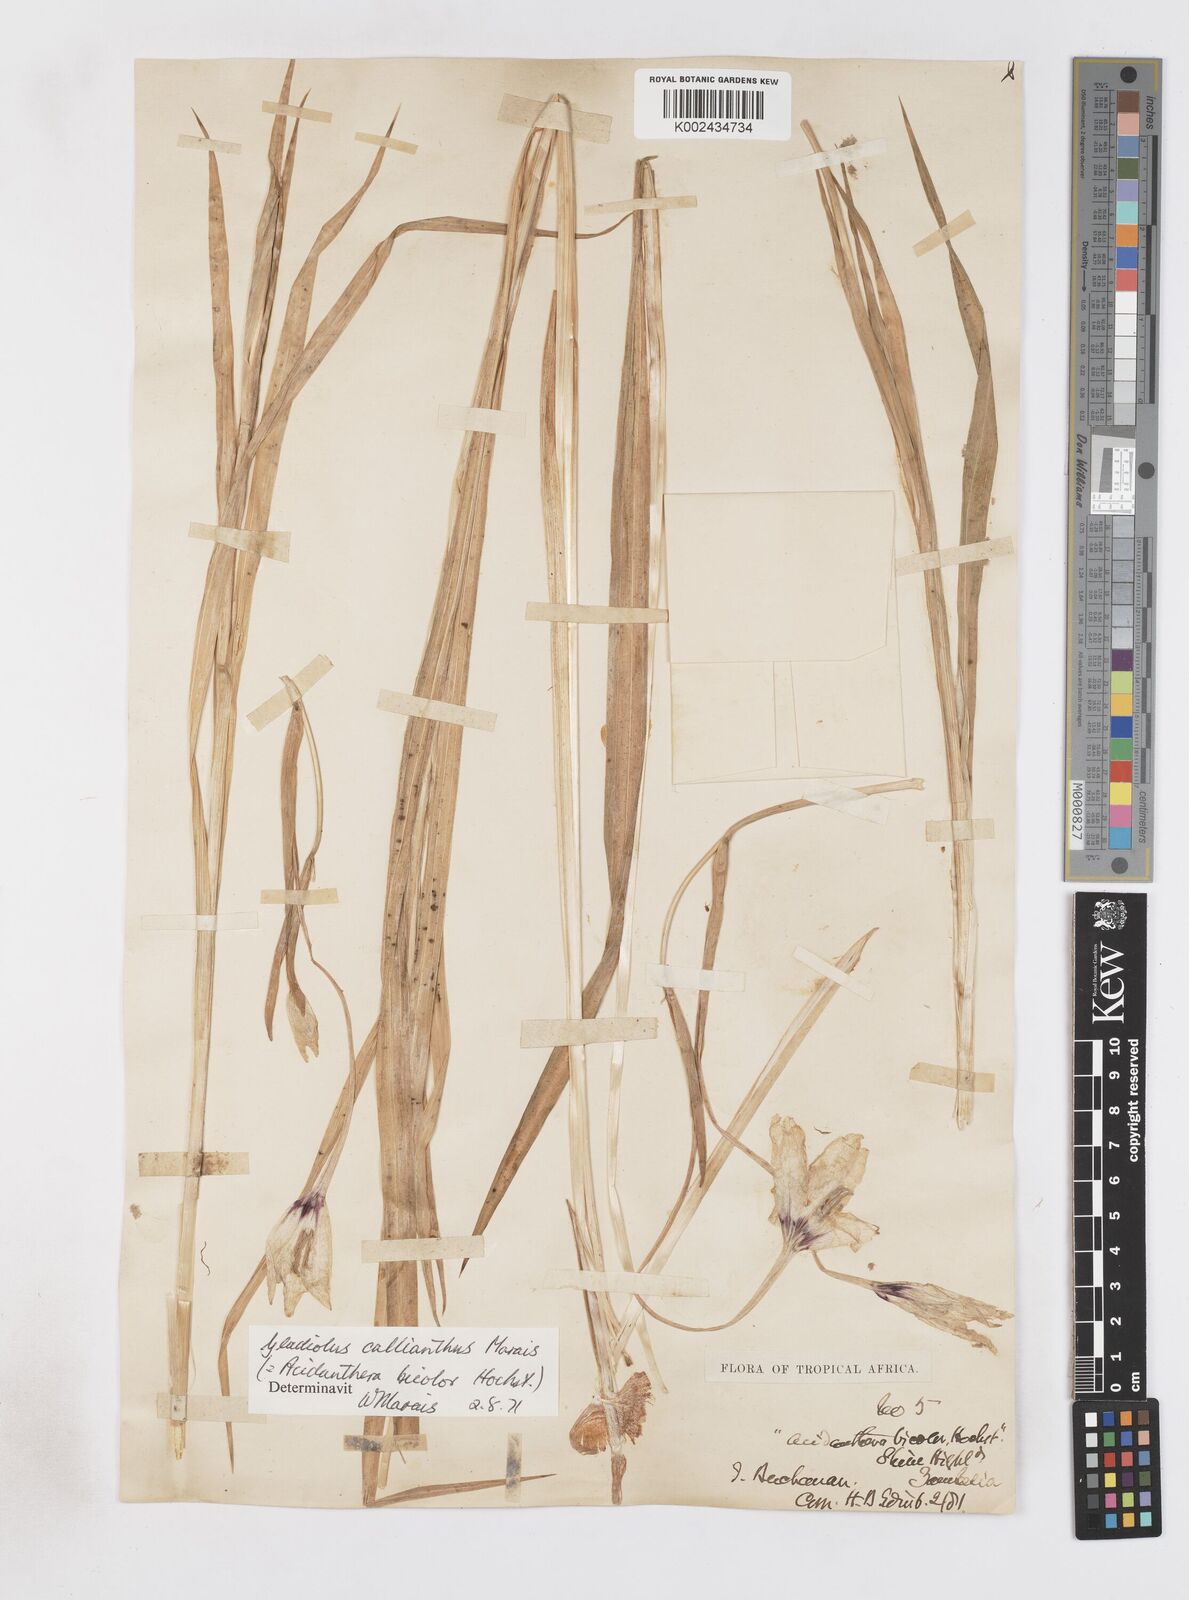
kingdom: Plantae
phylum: Tracheophyta
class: Liliopsida
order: Asparagales
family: Iridaceae
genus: Gladiolus
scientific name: Gladiolus murielae
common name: Acidanthera
